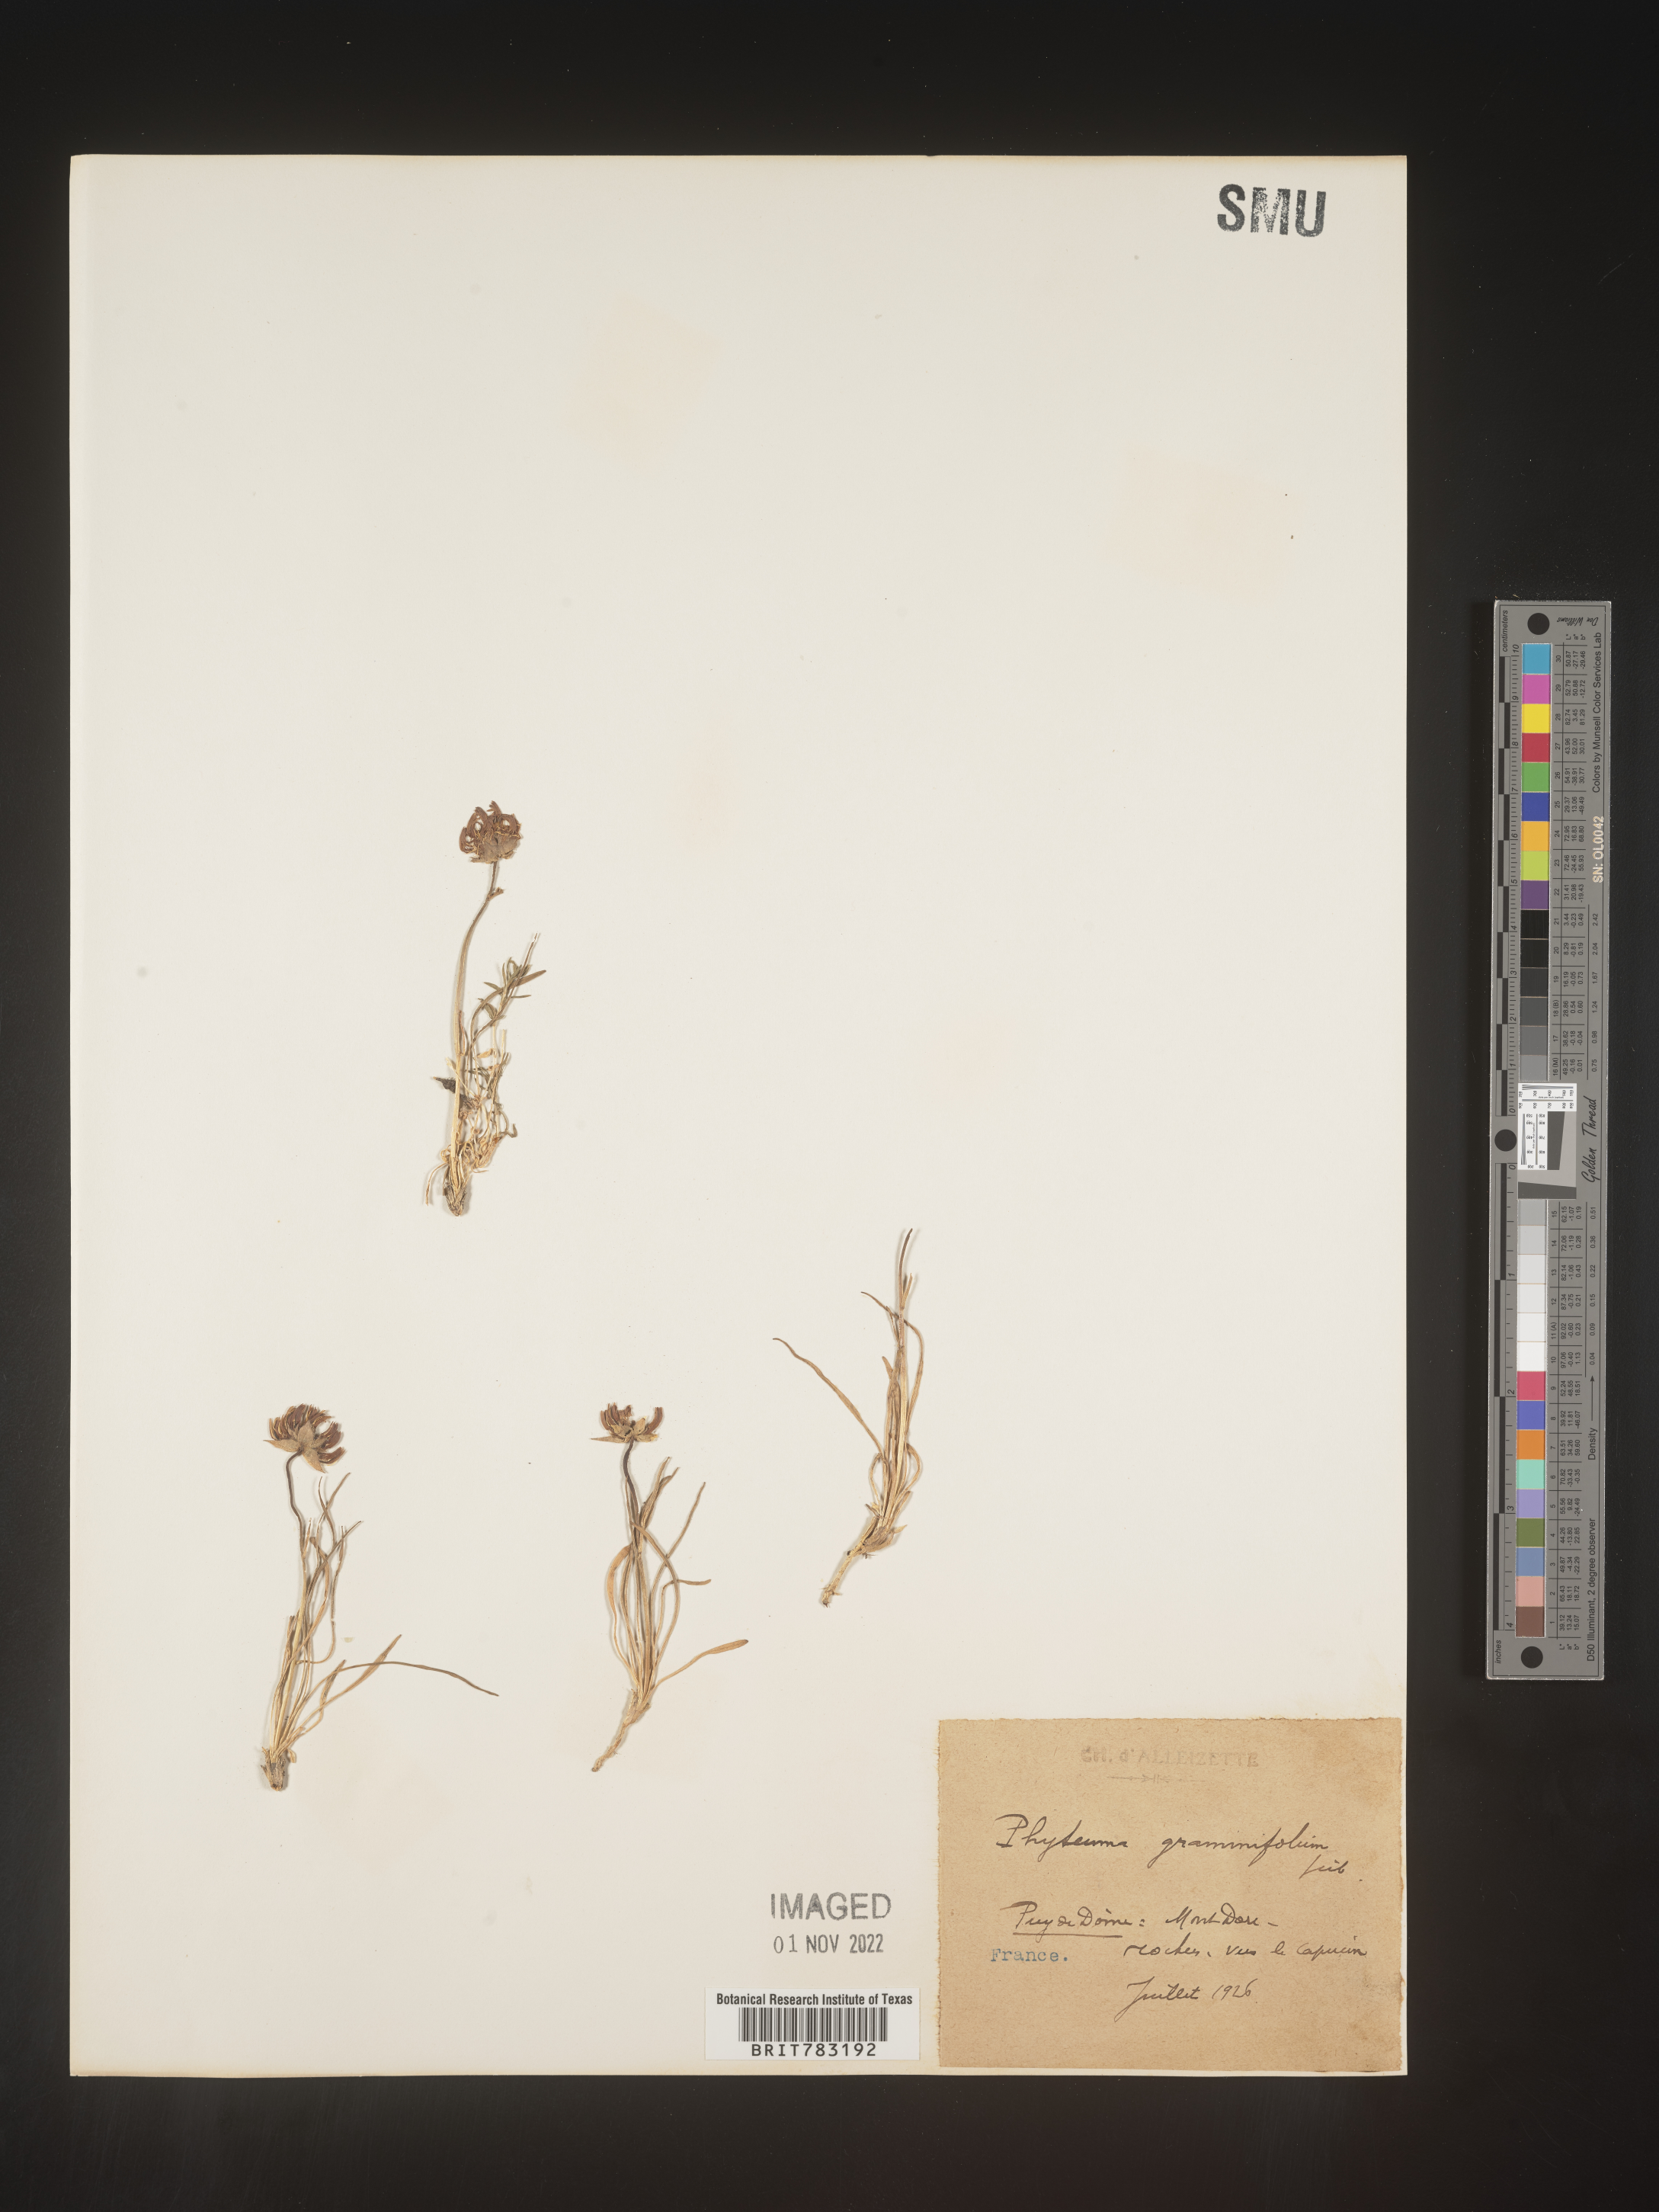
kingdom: Plantae
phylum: Tracheophyta
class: Magnoliopsida
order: Asterales
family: Campanulaceae
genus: Phyteuma
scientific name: Phyteuma
